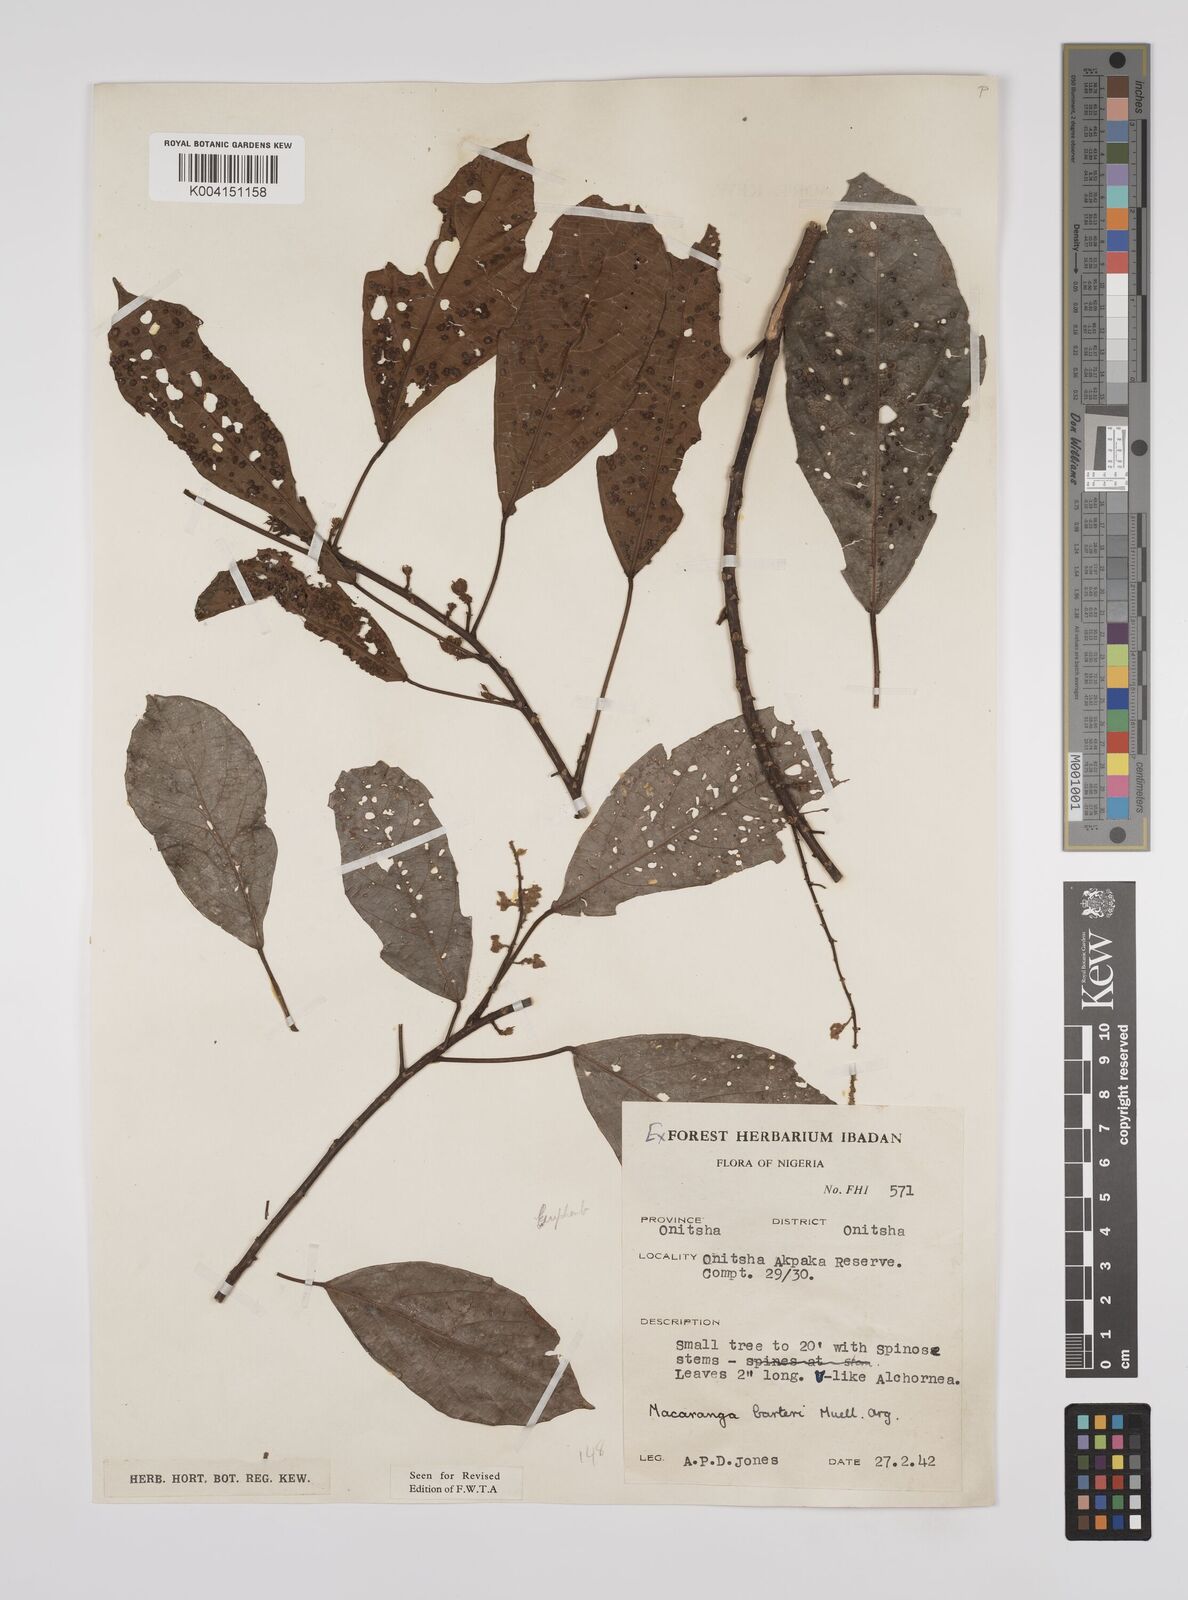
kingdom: Plantae
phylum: Tracheophyta
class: Magnoliopsida
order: Malpighiales
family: Euphorbiaceae
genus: Macaranga
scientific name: Macaranga barteri
